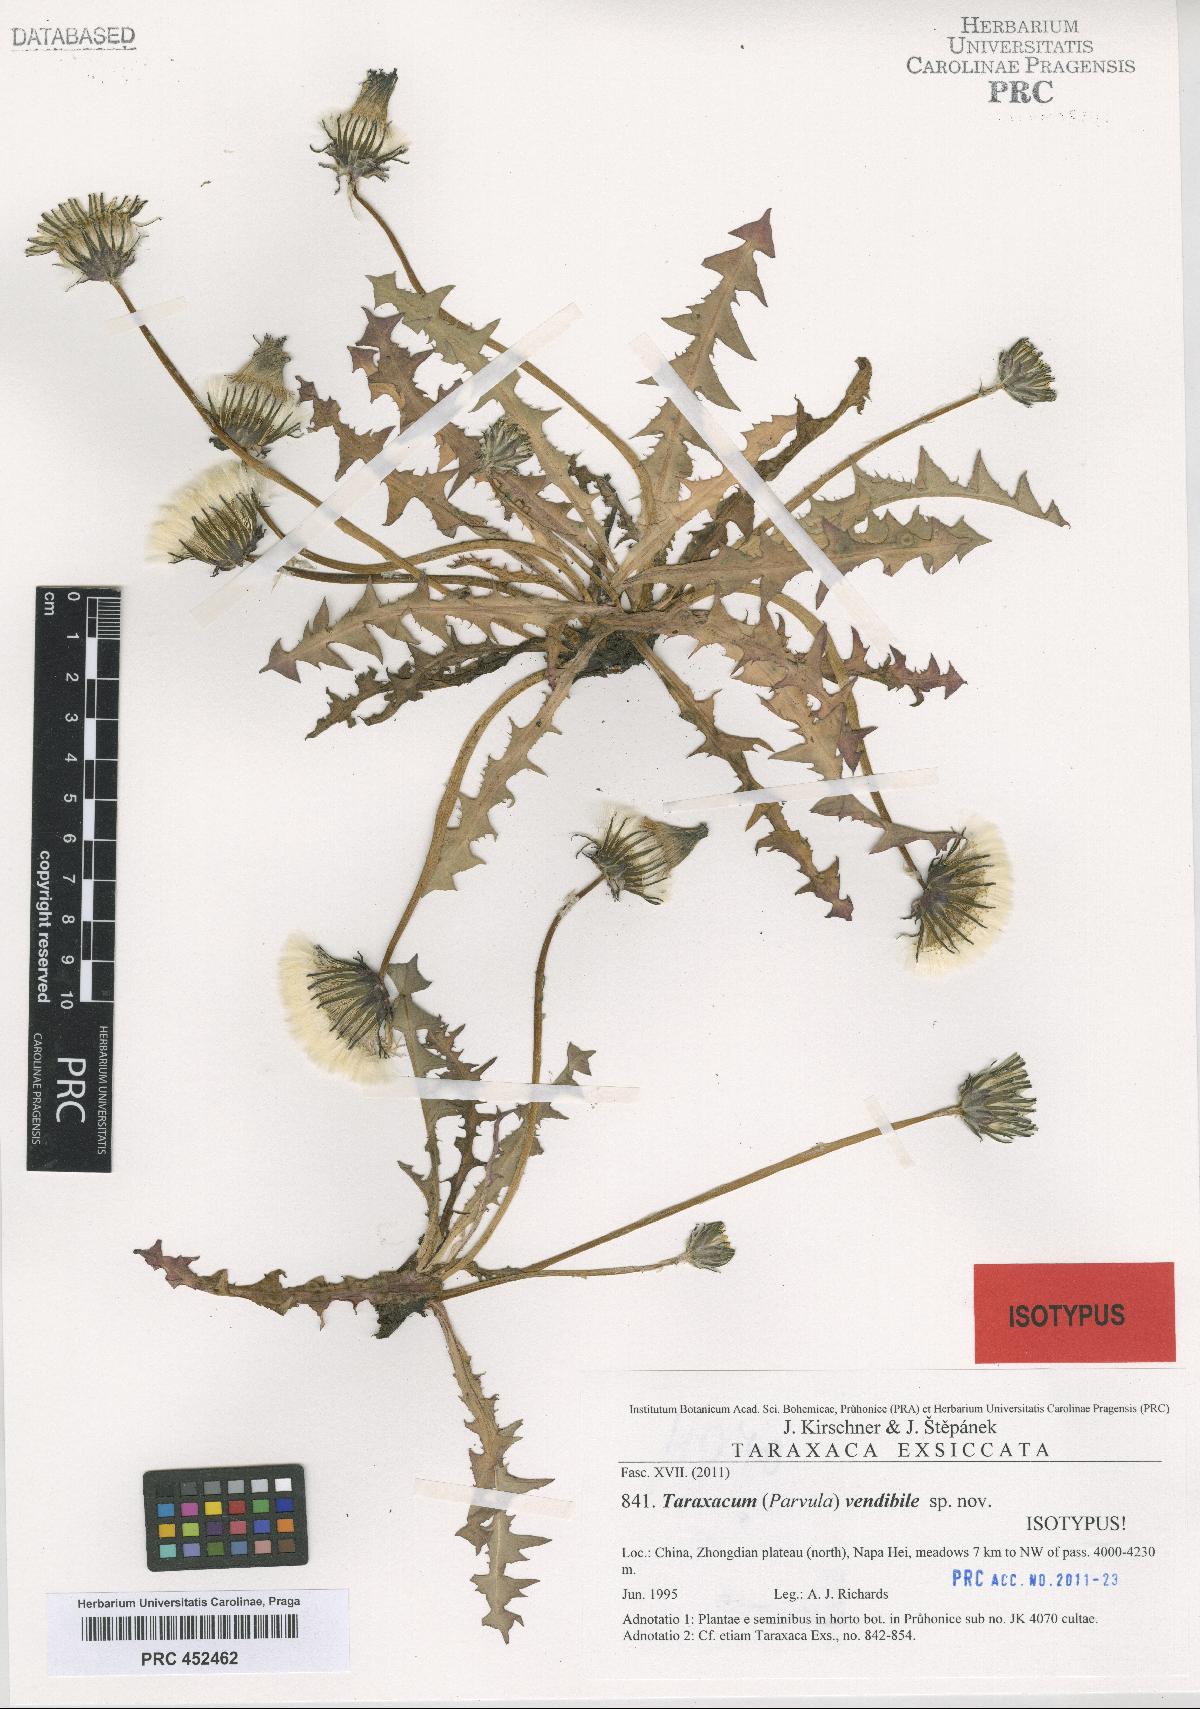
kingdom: Plantae
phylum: Tracheophyta
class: Magnoliopsida
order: Asterales
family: Asteraceae
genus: Taraxacum
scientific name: Taraxacum vendibile
